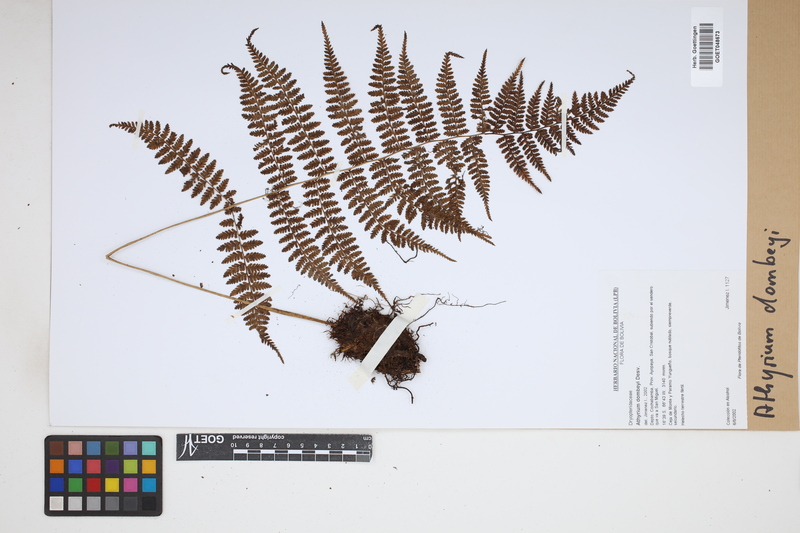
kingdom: Plantae
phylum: Tracheophyta
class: Polypodiopsida
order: Polypodiales
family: Athyriaceae
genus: Athyrium
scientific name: Athyrium dombeyi
